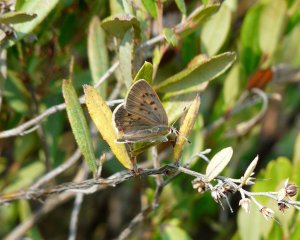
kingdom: Animalia
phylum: Arthropoda
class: Insecta
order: Lepidoptera
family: Sesiidae
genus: Sesia
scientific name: Sesia Lycaena epixanthe
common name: Bog Copper
